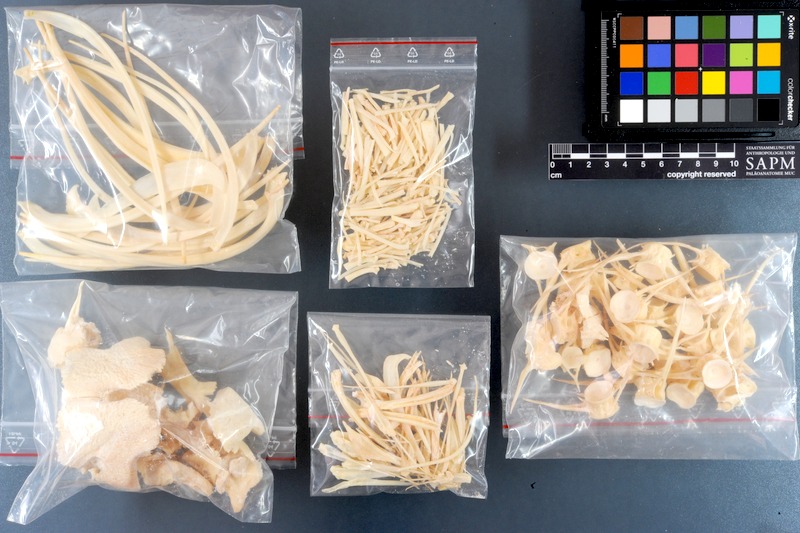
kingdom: Animalia
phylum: Chordata
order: Characiformes
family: Serrasalmidae
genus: Myleus
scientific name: Myleus pacu
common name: Pacu
